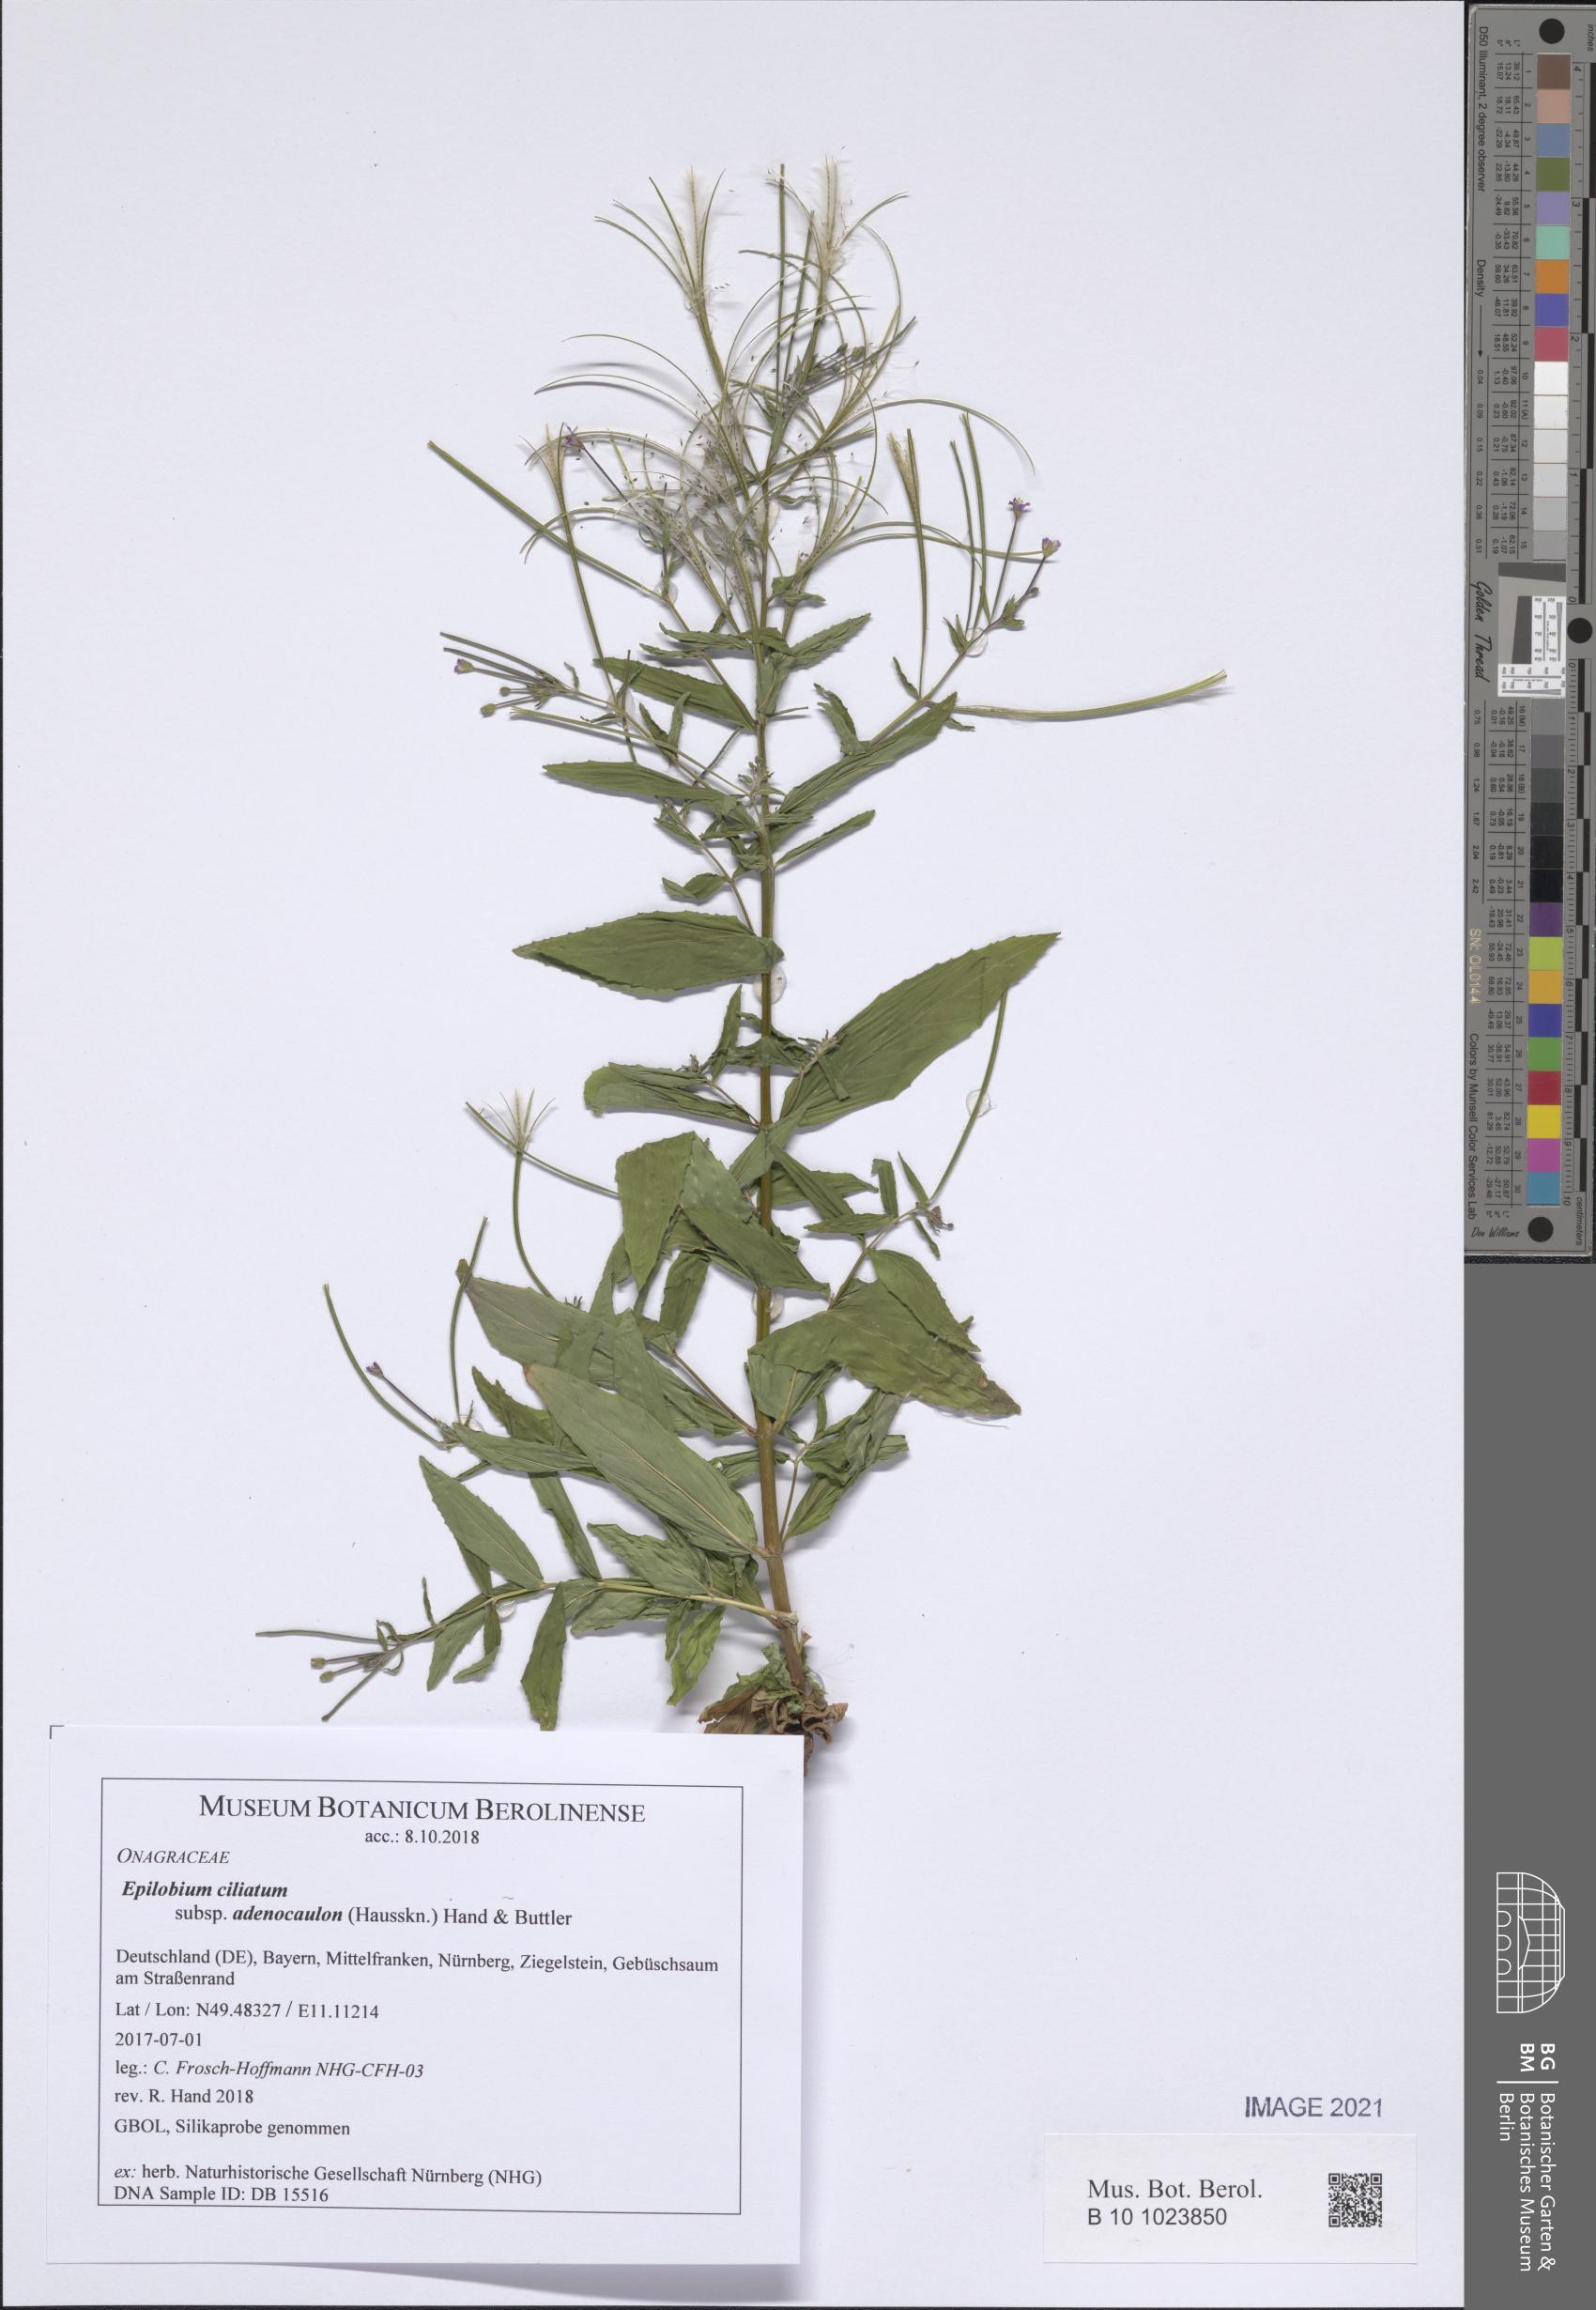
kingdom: Plantae
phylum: Tracheophyta
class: Magnoliopsida
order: Myrtales
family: Onagraceae
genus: Epilobium
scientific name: Epilobium ciliatum
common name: American willowherb
